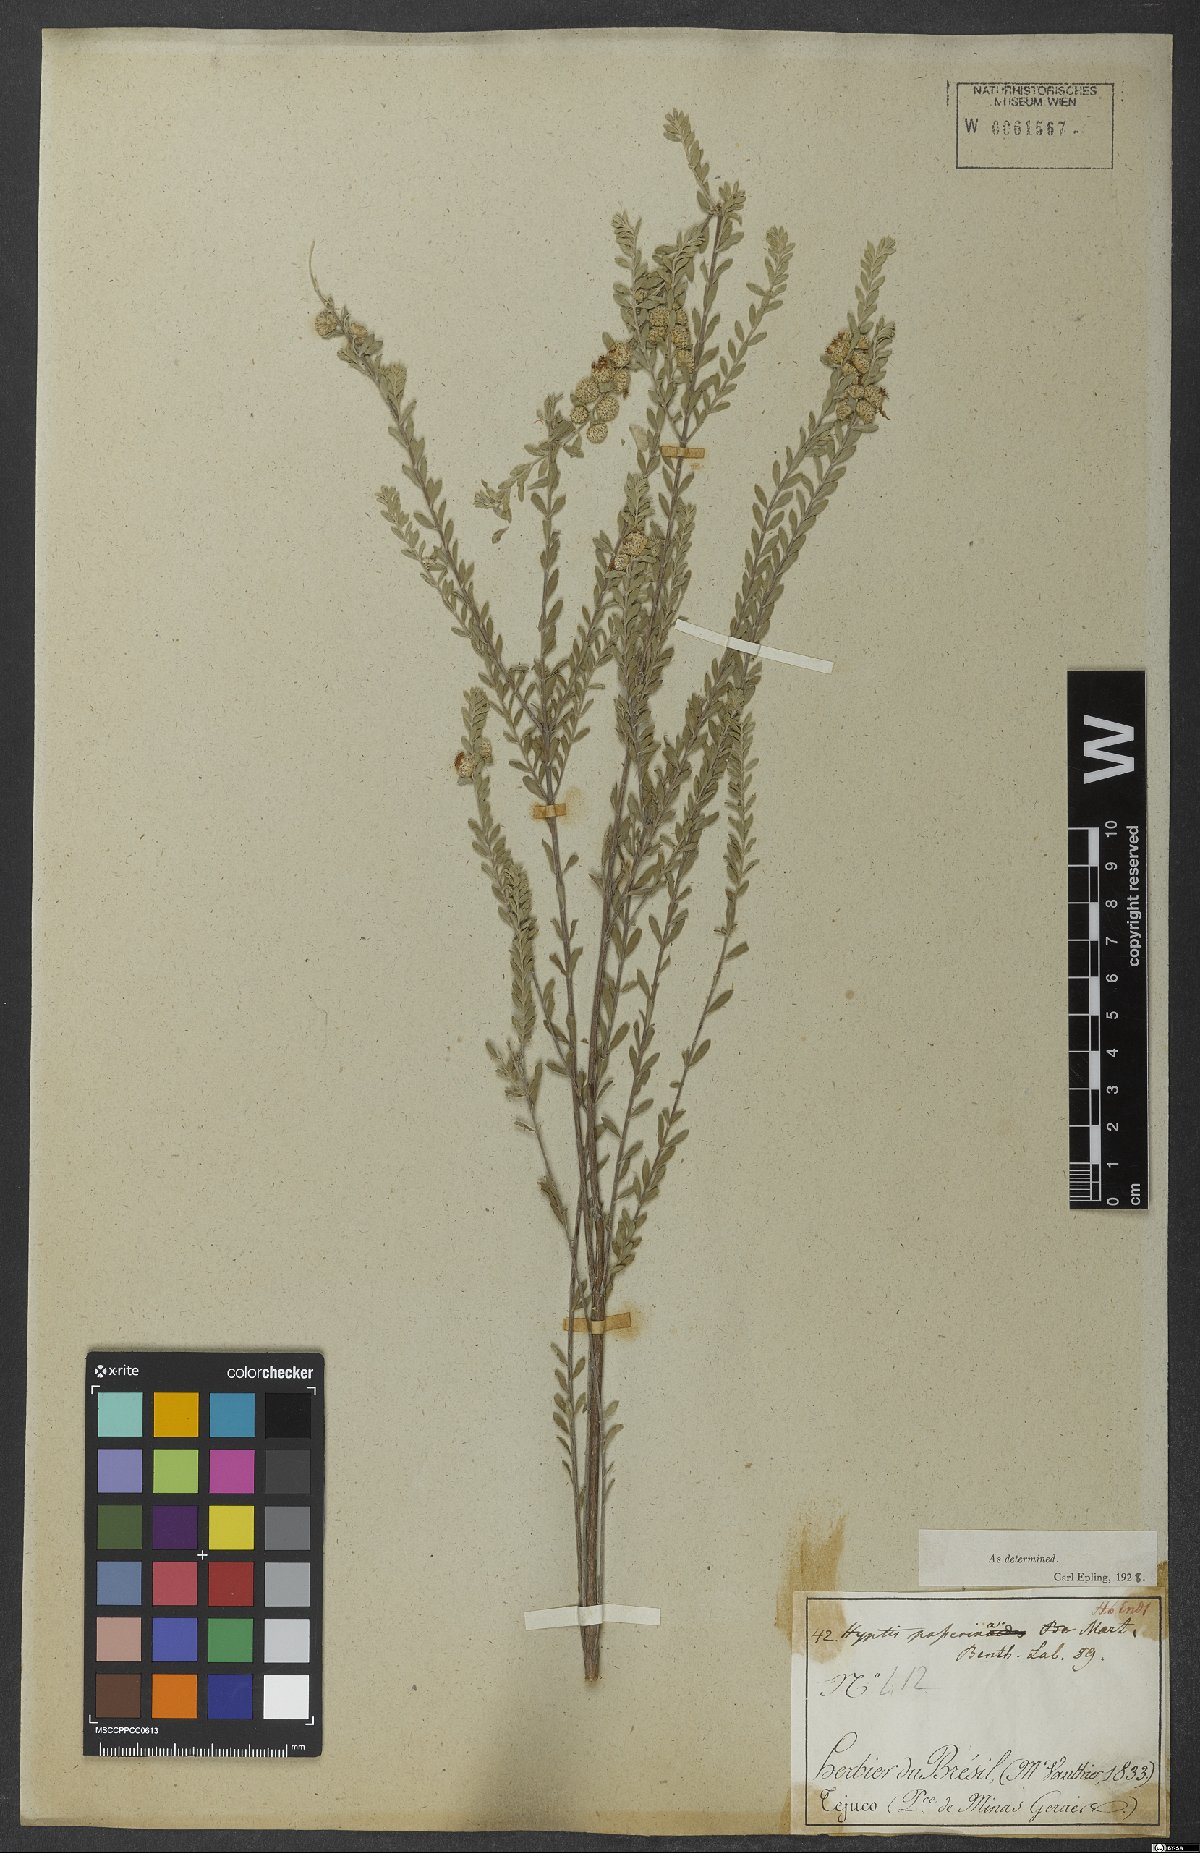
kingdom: Plantae
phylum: Tracheophyta
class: Magnoliopsida
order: Lamiales
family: Lamiaceae
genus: Hyptis
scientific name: Hyptis passerina
